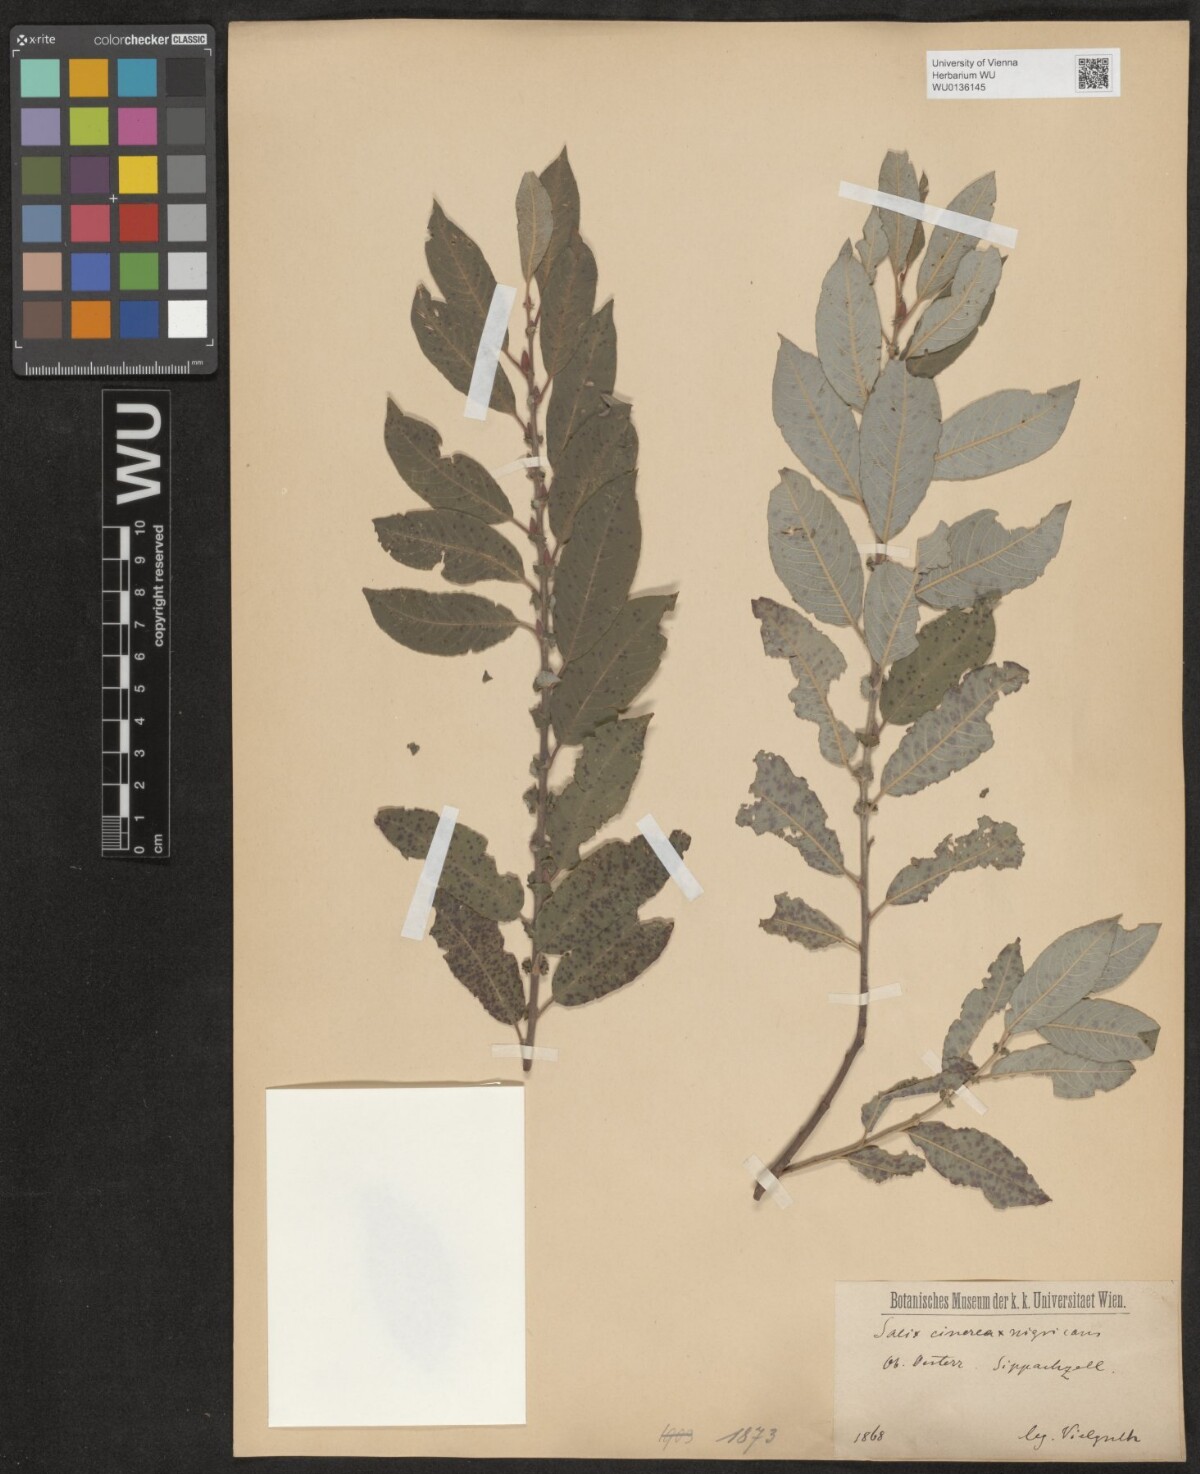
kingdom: Plantae
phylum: Tracheophyta
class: Magnoliopsida
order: Malpighiales
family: Salicaceae
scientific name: Salicaceae
